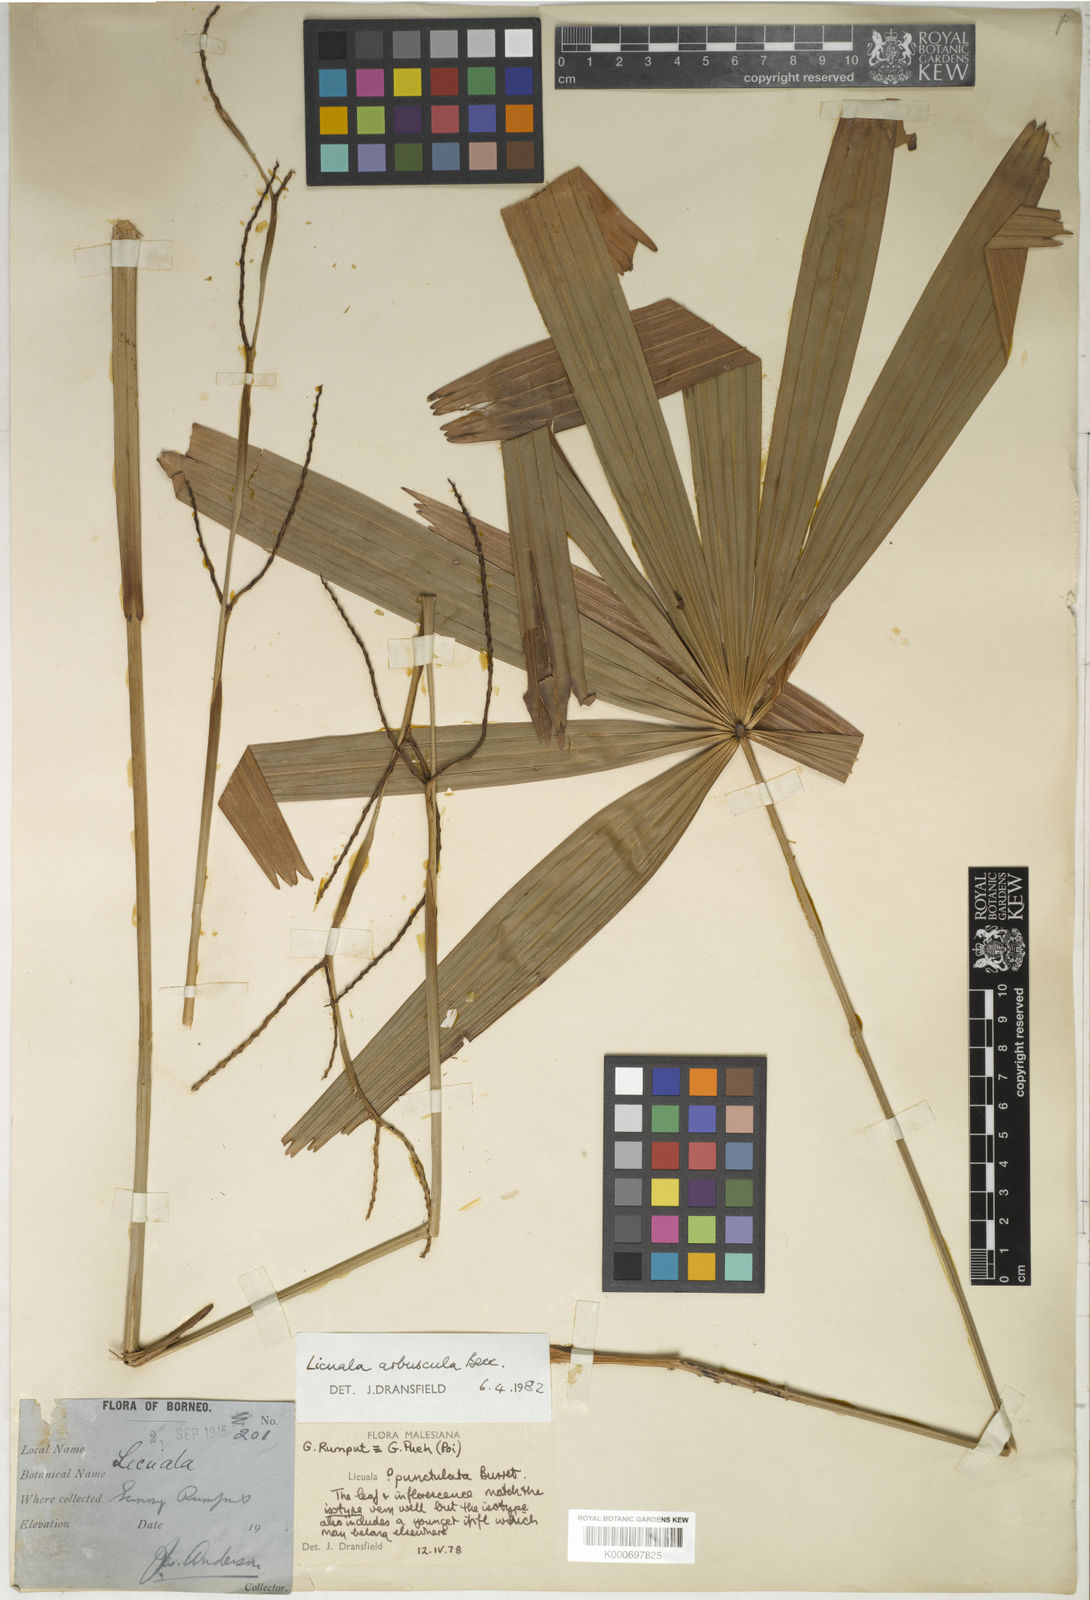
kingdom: Plantae
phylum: Tracheophyta
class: Liliopsida
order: Arecales
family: Arecaceae
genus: Licuala
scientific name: Licuala glabra
